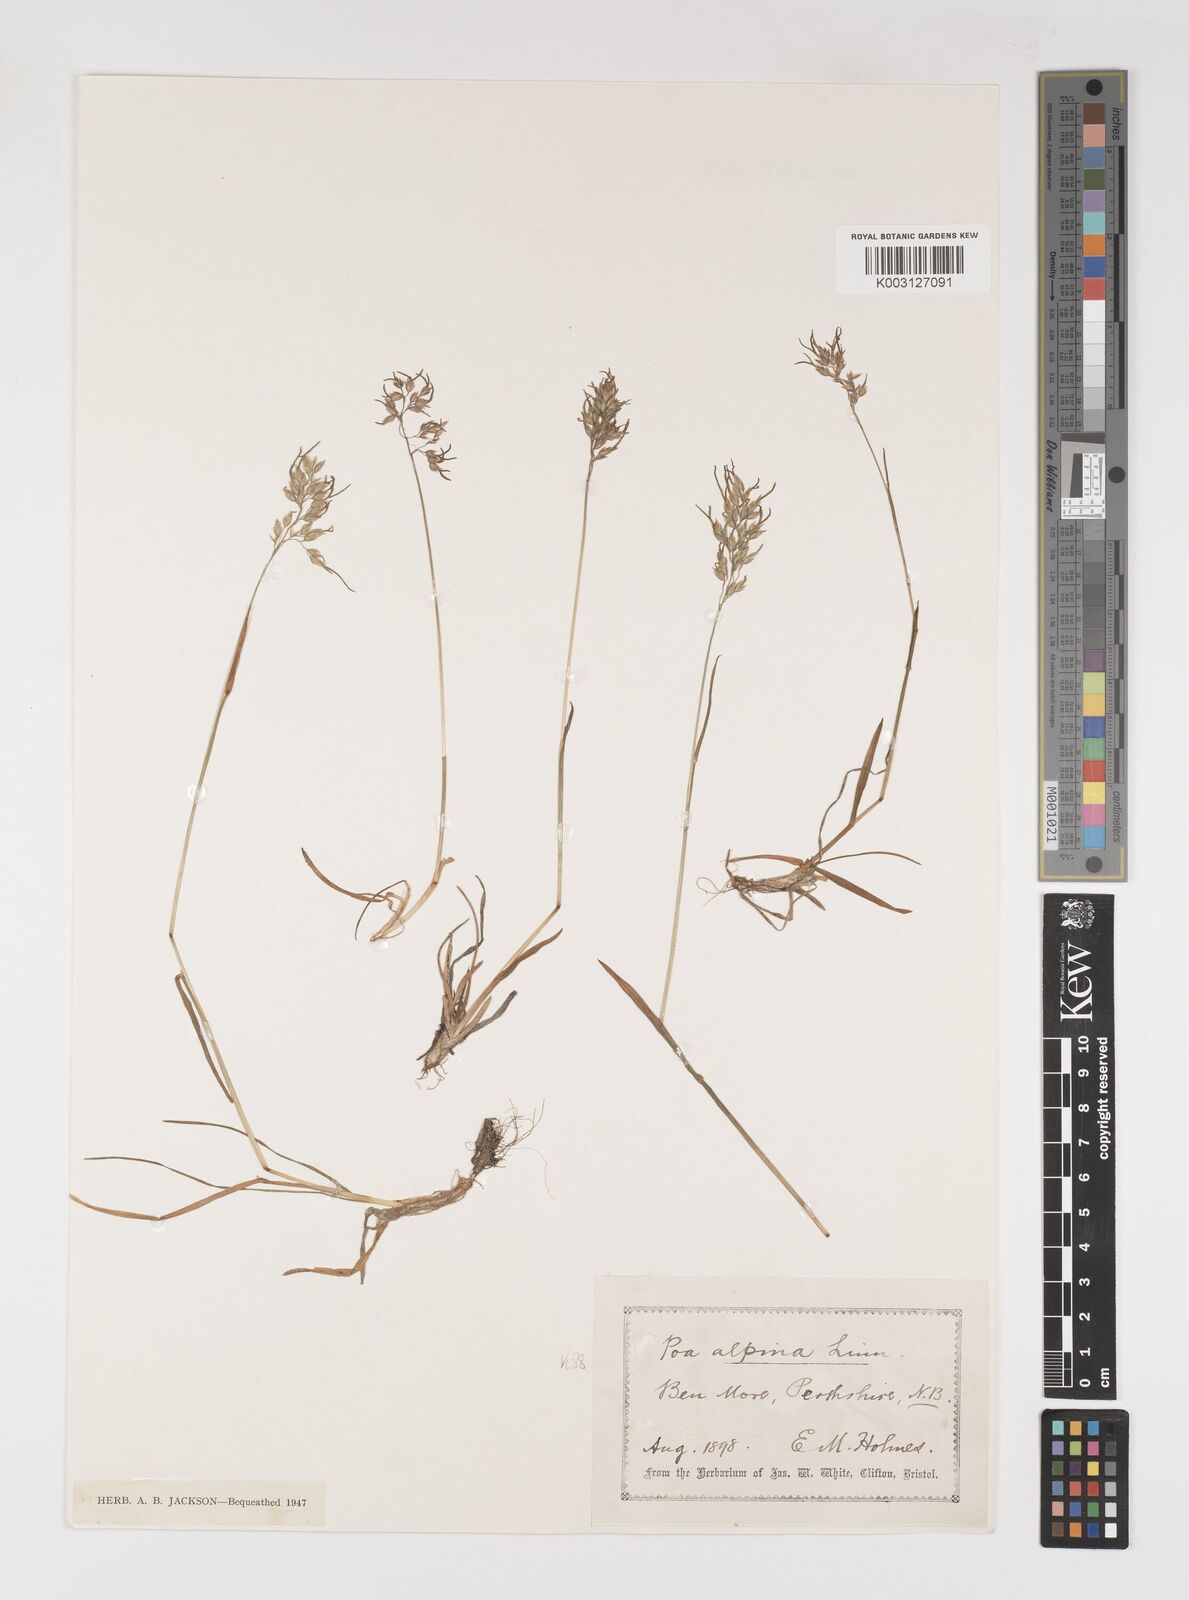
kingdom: Plantae
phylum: Tracheophyta
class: Liliopsida
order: Poales
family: Poaceae
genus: Poa
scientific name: Poa alpina
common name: Alpine bluegrass
